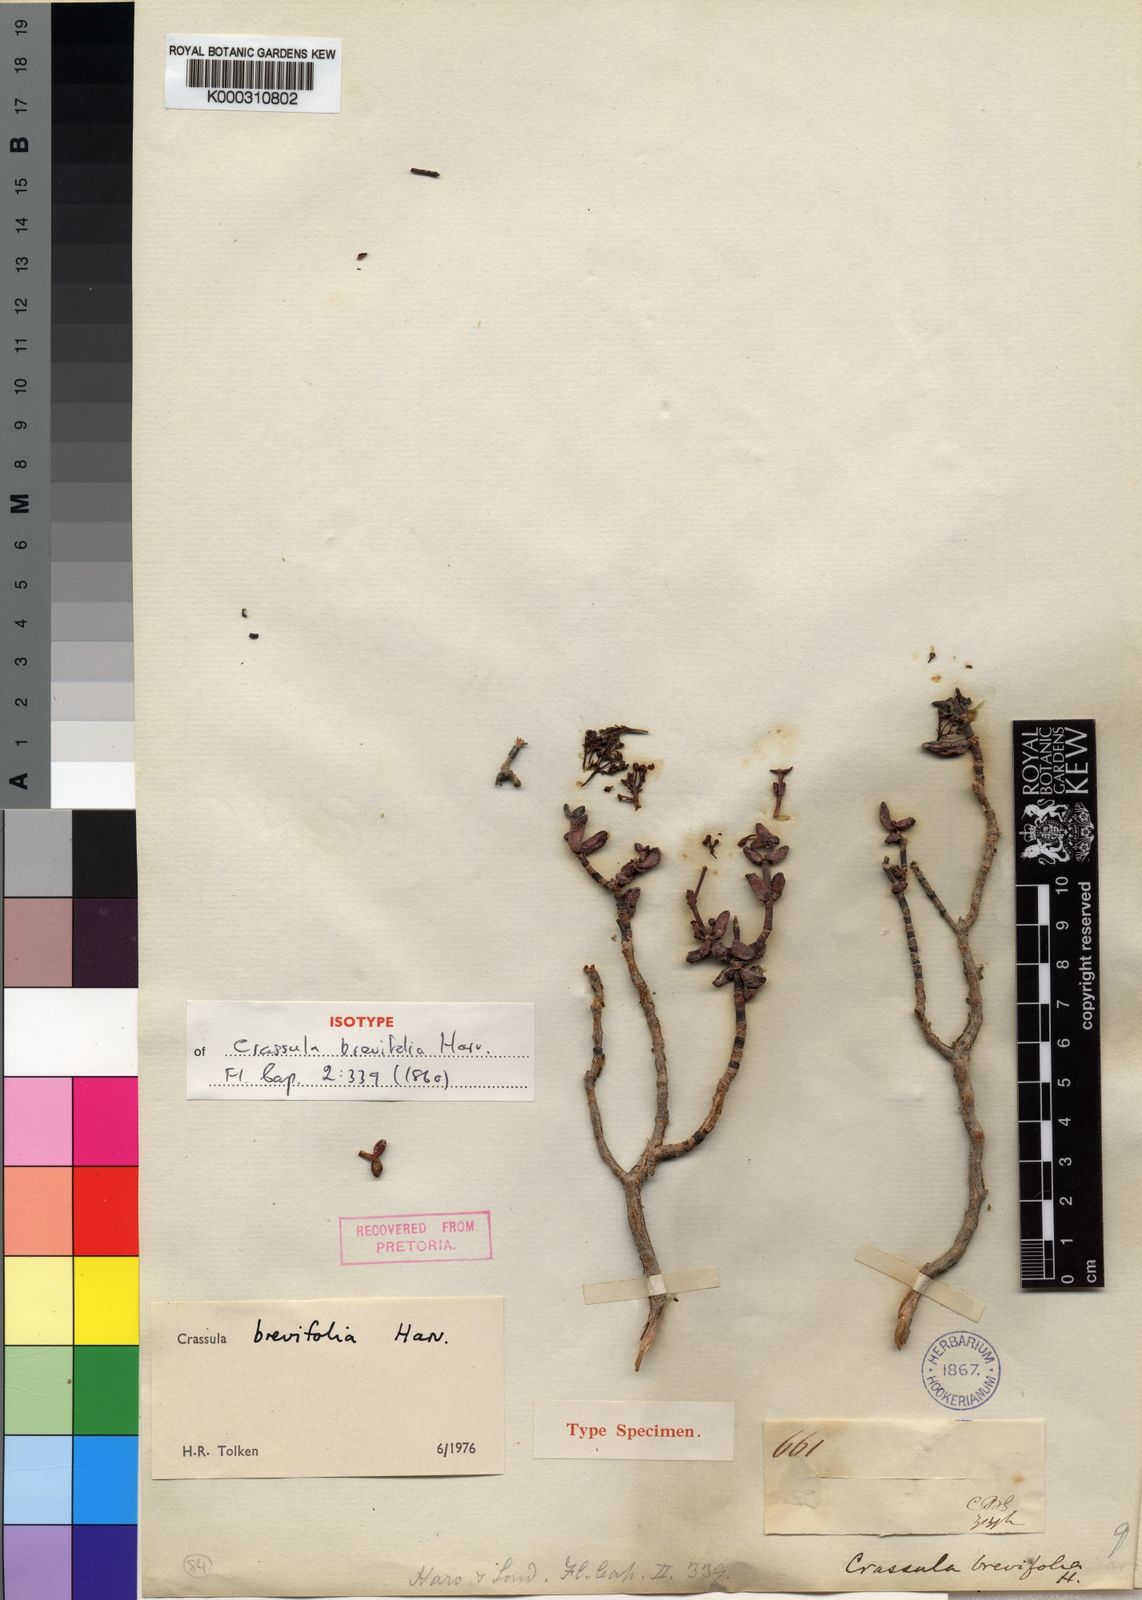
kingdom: Plantae
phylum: Tracheophyta
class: Magnoliopsida
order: Saxifragales
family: Crassulaceae
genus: Crassula
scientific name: Crassula brevifolia
